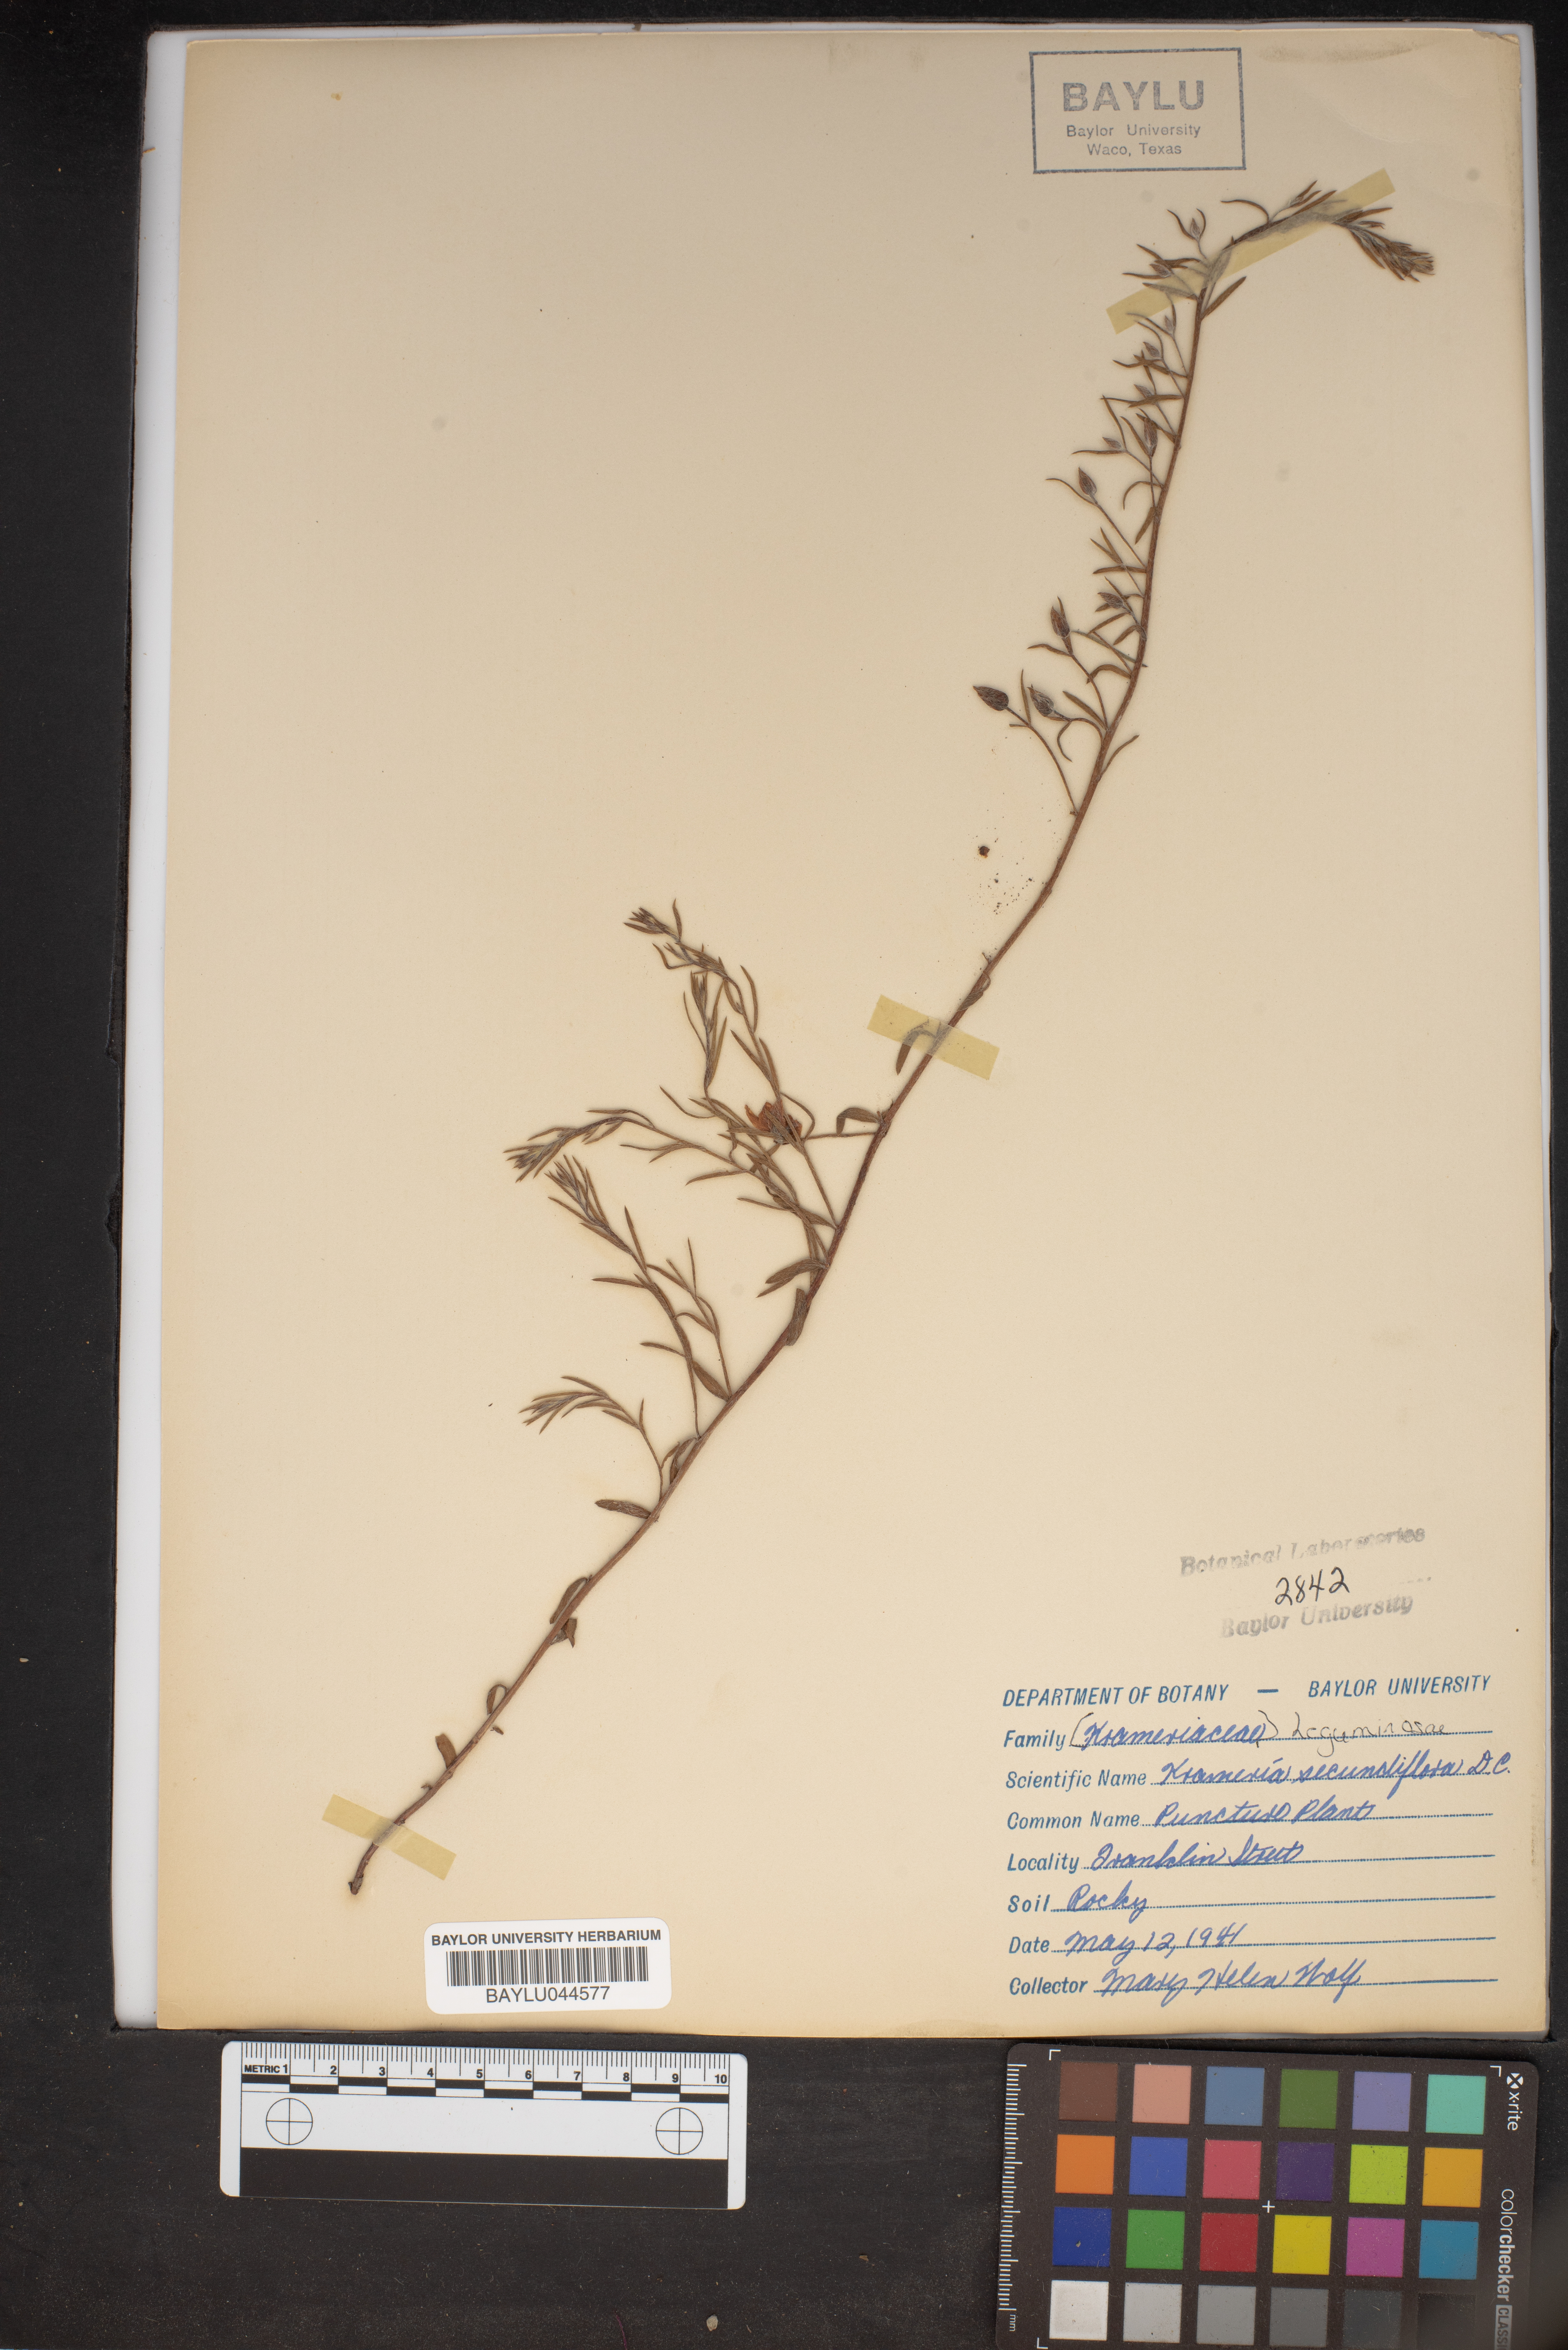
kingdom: Plantae
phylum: Tracheophyta
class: Magnoliopsida
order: Zygophyllales
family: Krameriaceae
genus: Krameria
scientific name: Krameria secundiflora
